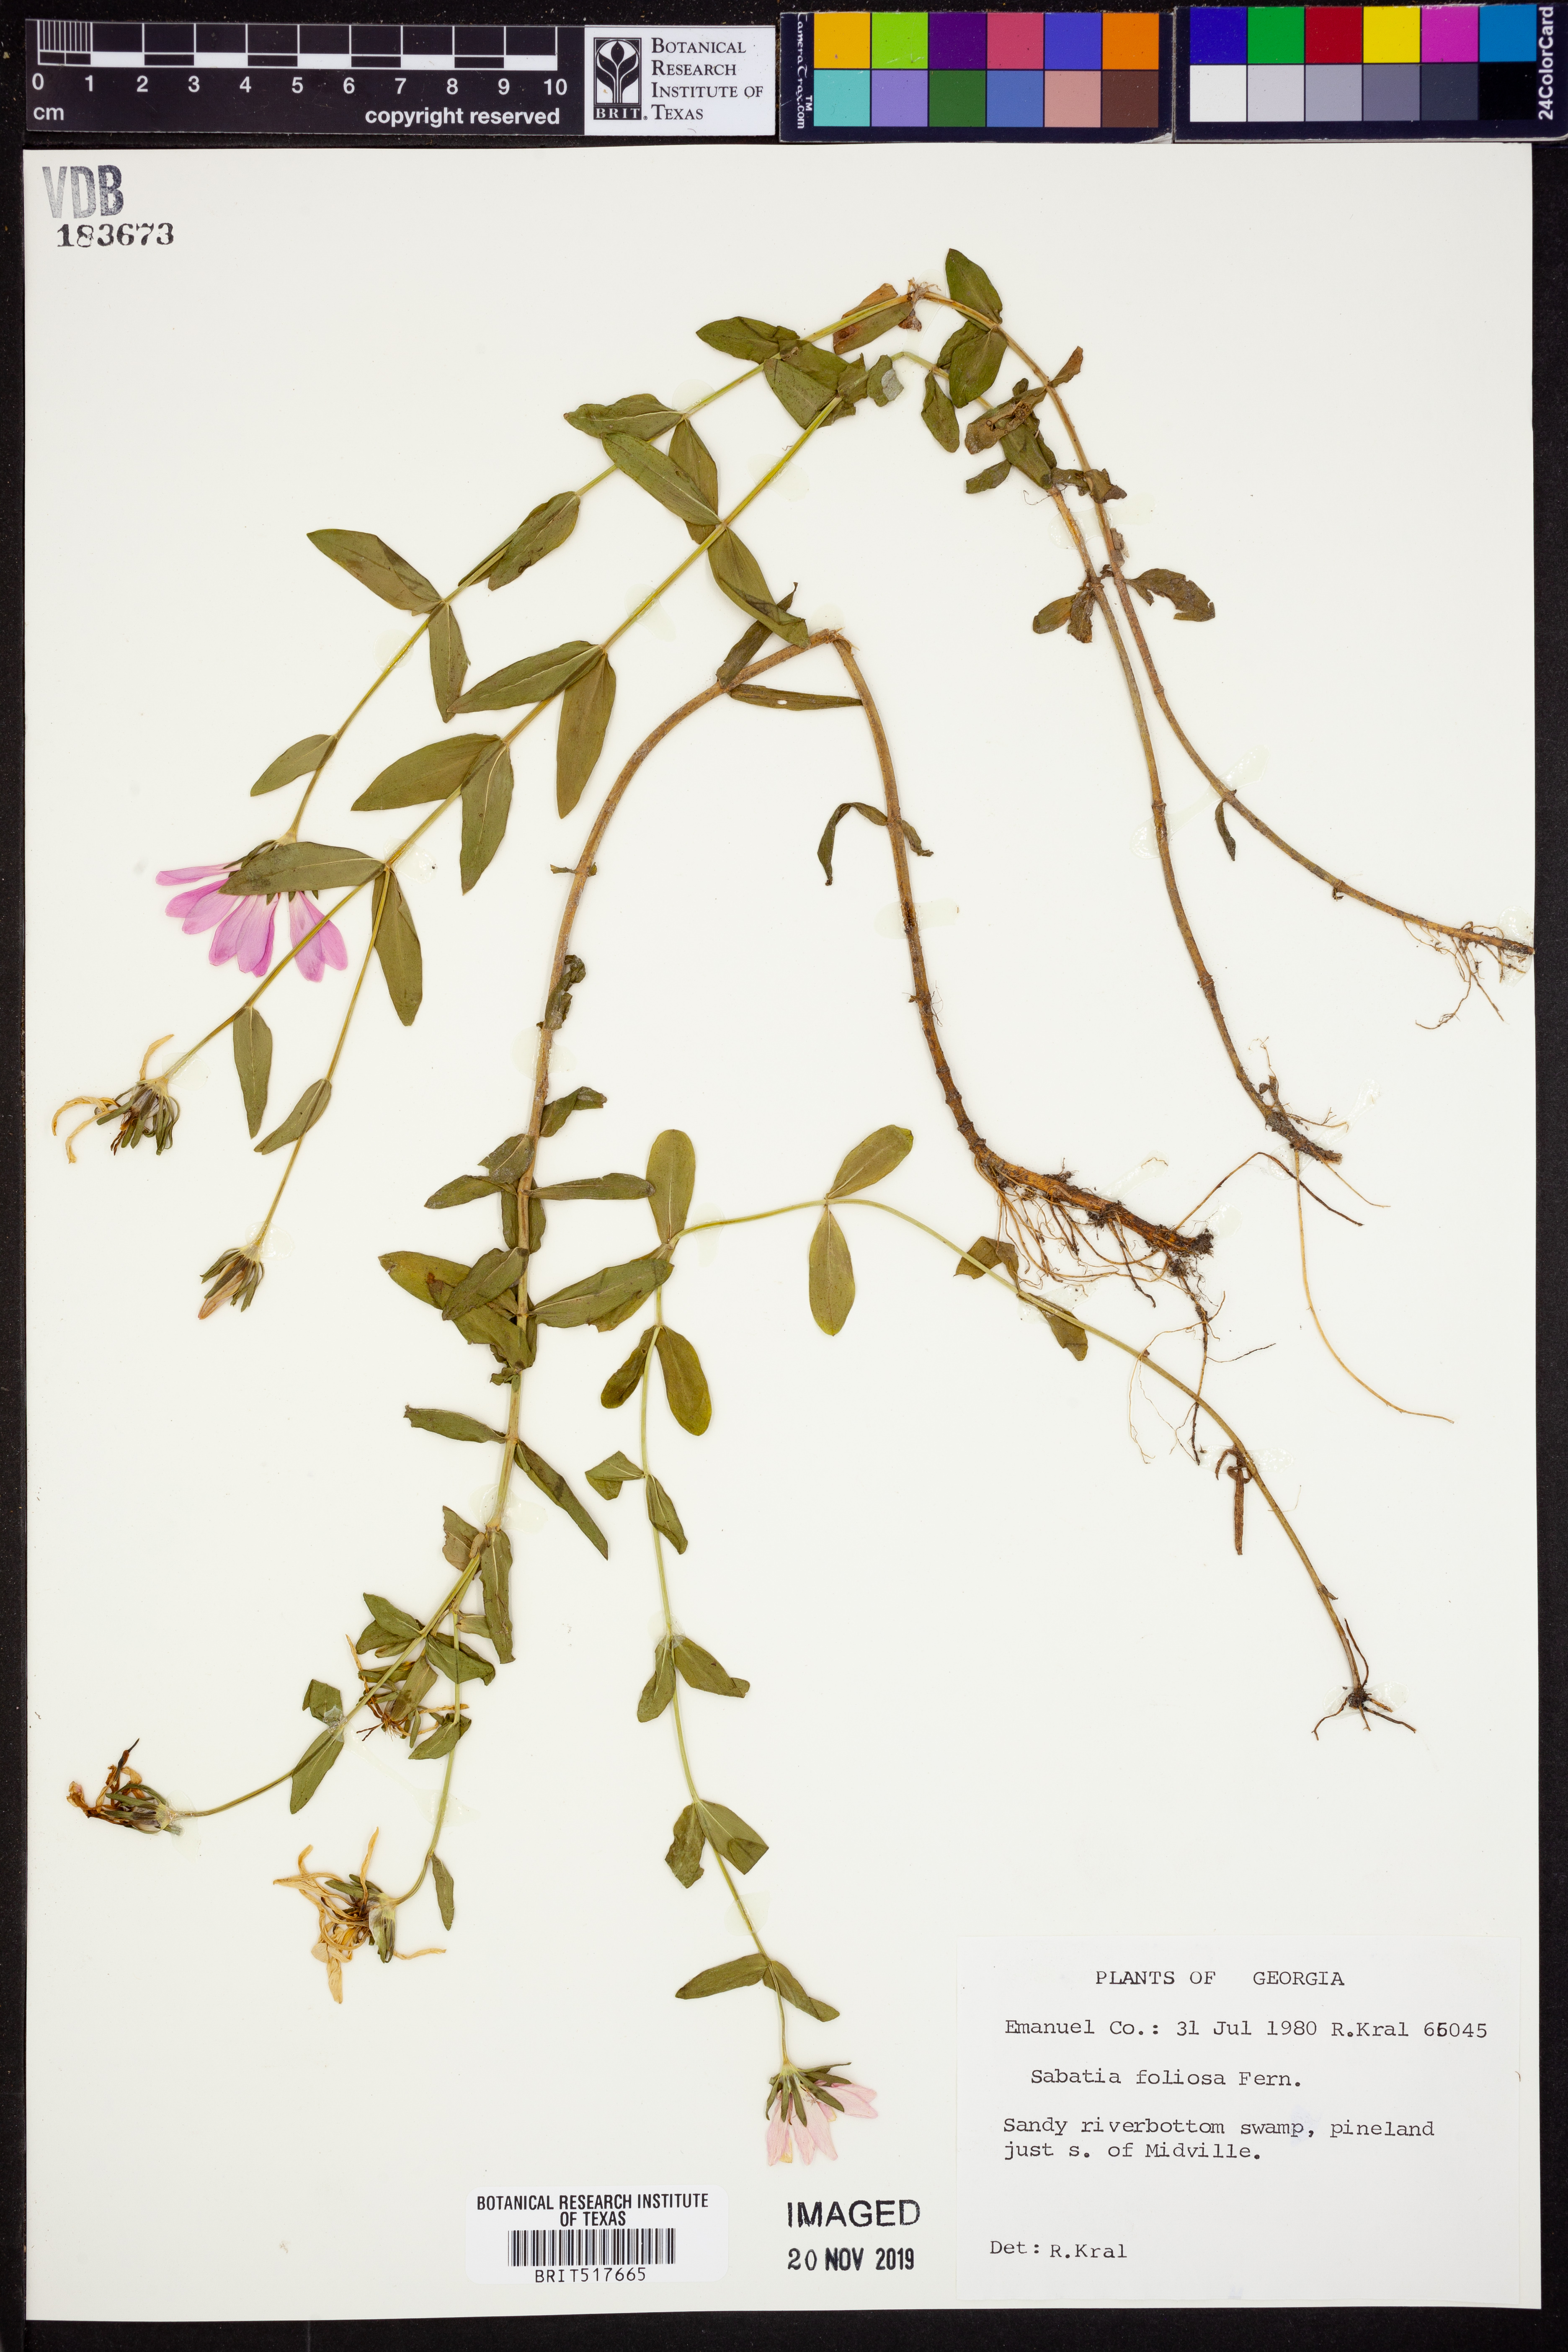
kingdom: Plantae
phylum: Tracheophyta
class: Magnoliopsida
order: Gentianales
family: Gentianaceae
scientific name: Gentianaceae
